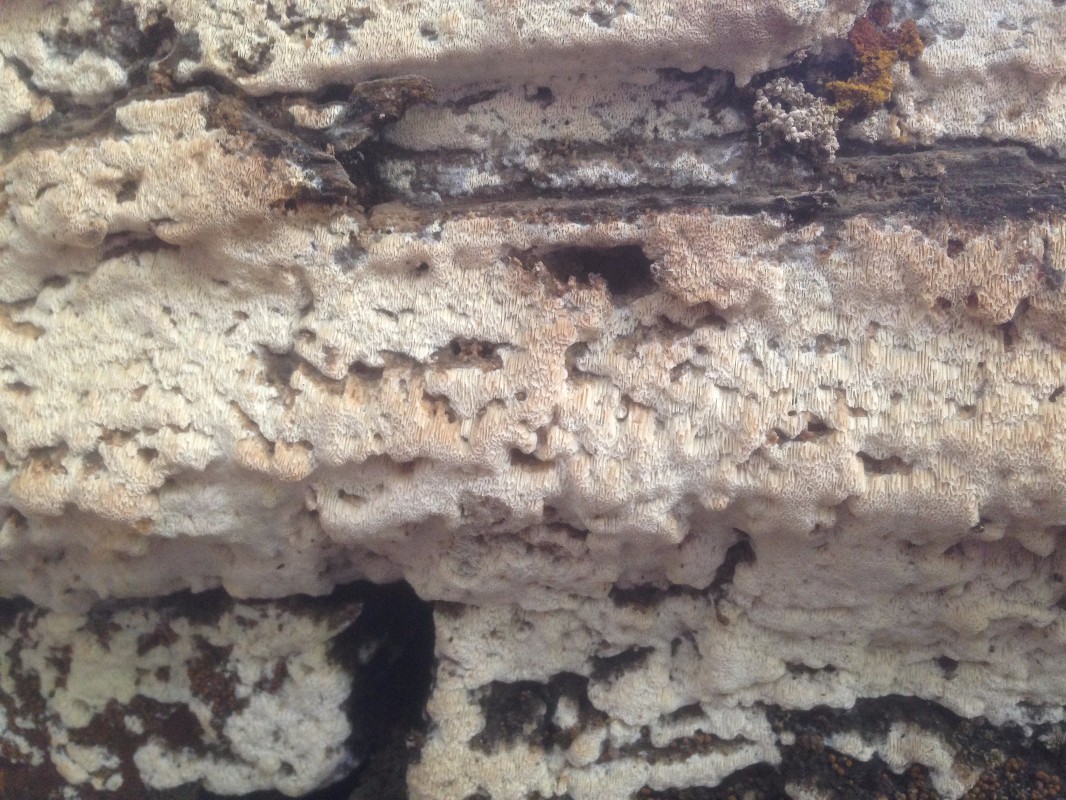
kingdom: Fungi
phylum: Basidiomycota
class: Agaricomycetes
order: Hymenochaetales
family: Oxyporaceae
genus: Oxyporus
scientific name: Oxyporus corticola
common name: storporet trylleporesvamp
